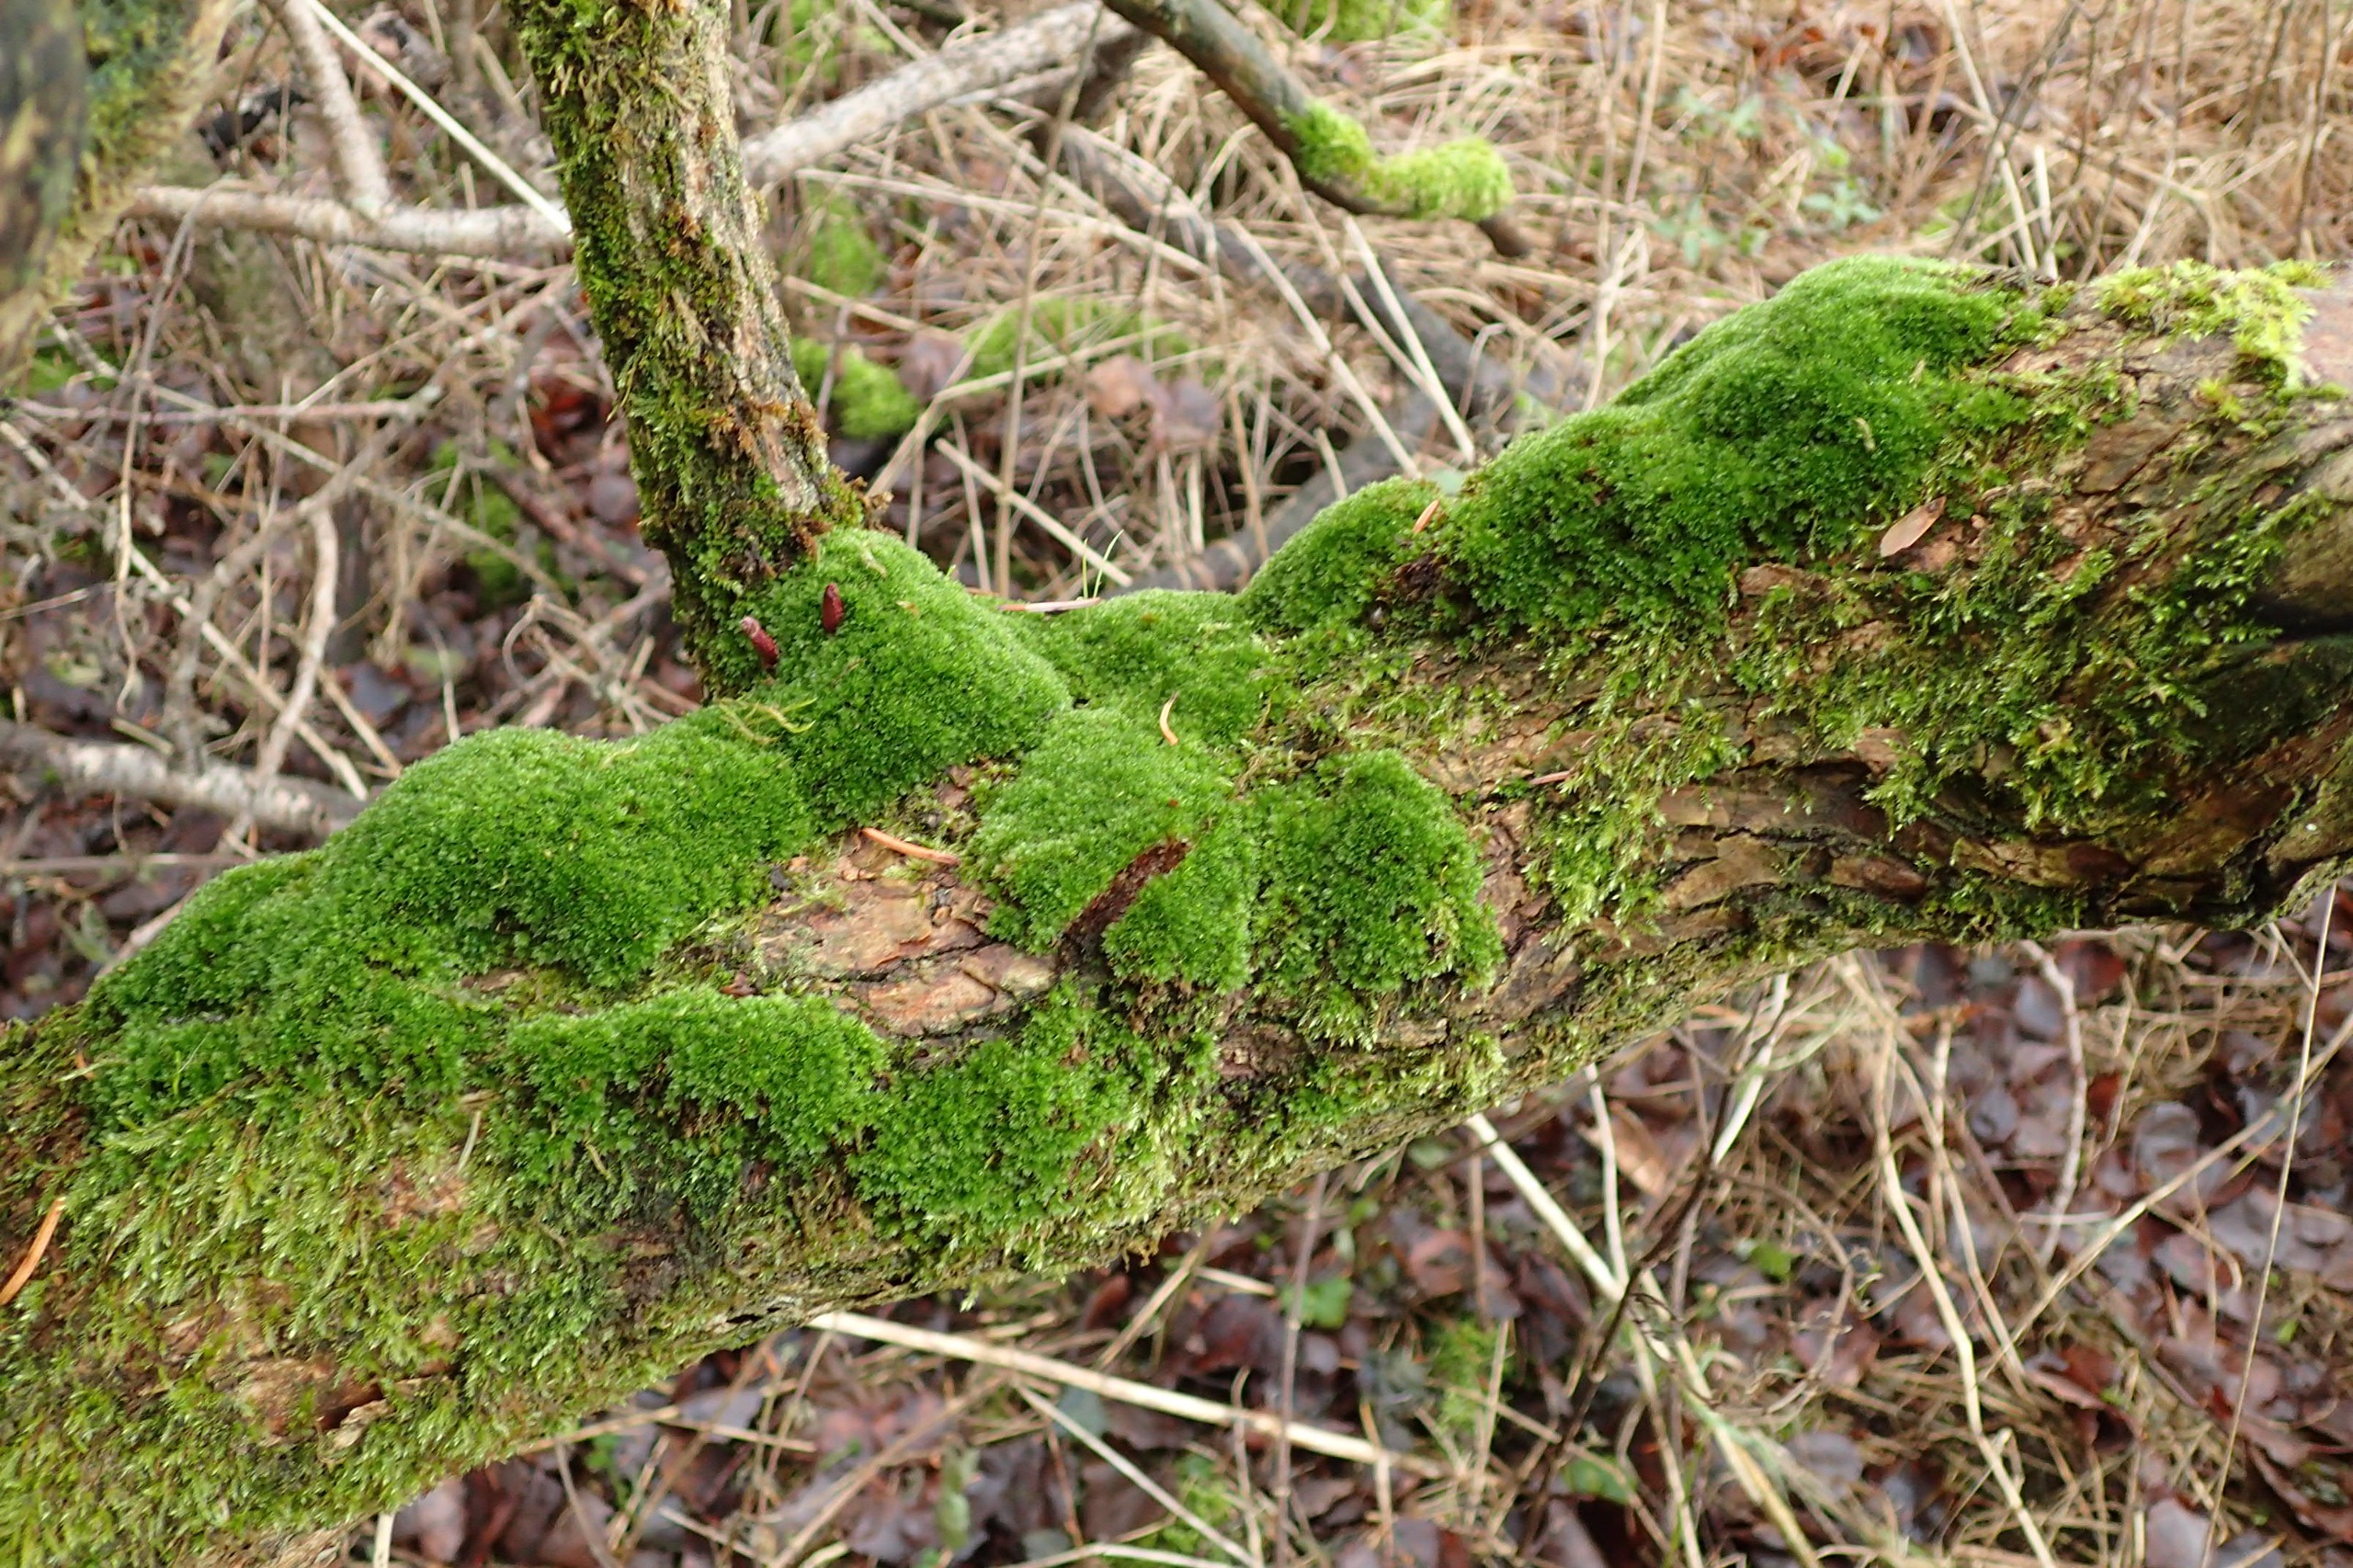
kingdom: Plantae
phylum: Bryophyta
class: Bryopsida
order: Bryales
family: Bryaceae
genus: Rosulabryum
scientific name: Rosulabryum capillare
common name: Hårspidset bryum
